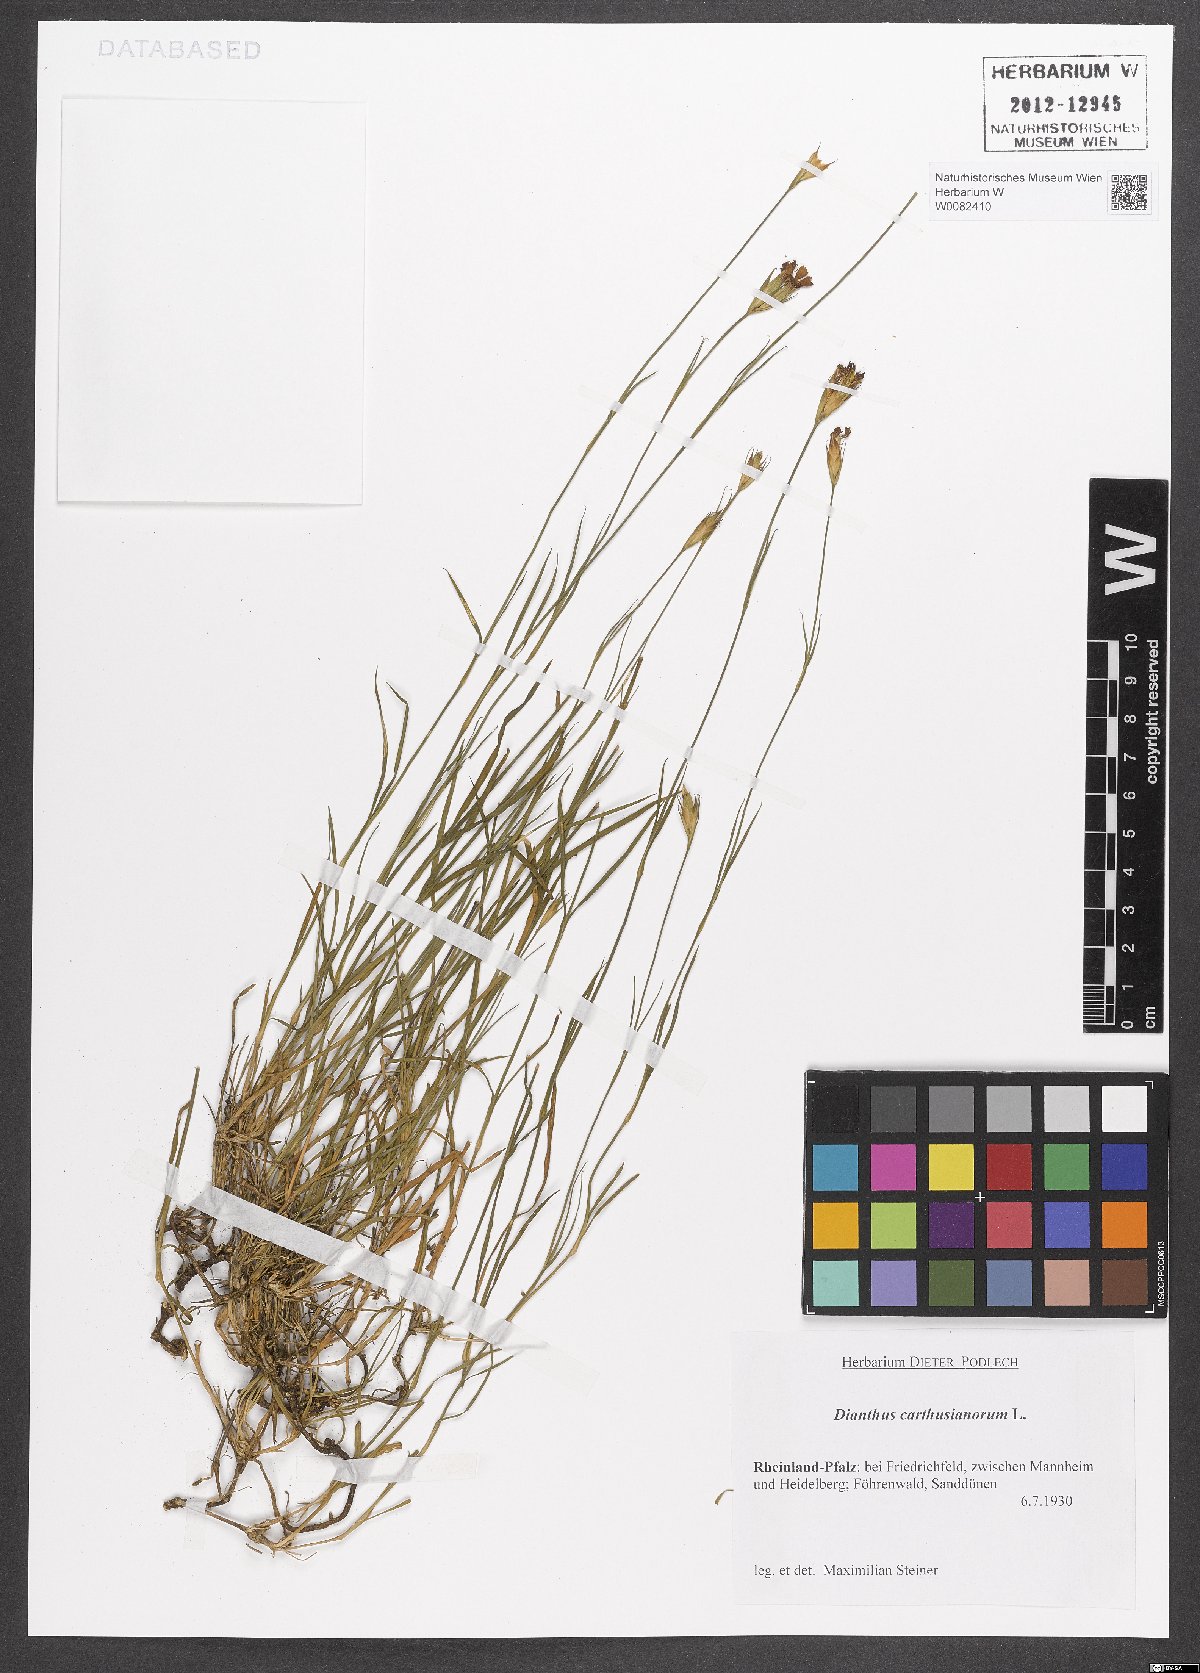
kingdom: Plantae
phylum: Tracheophyta
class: Magnoliopsida
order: Caryophyllales
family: Caryophyllaceae
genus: Dianthus
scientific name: Dianthus carthusianorum
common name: Carthusian pink
